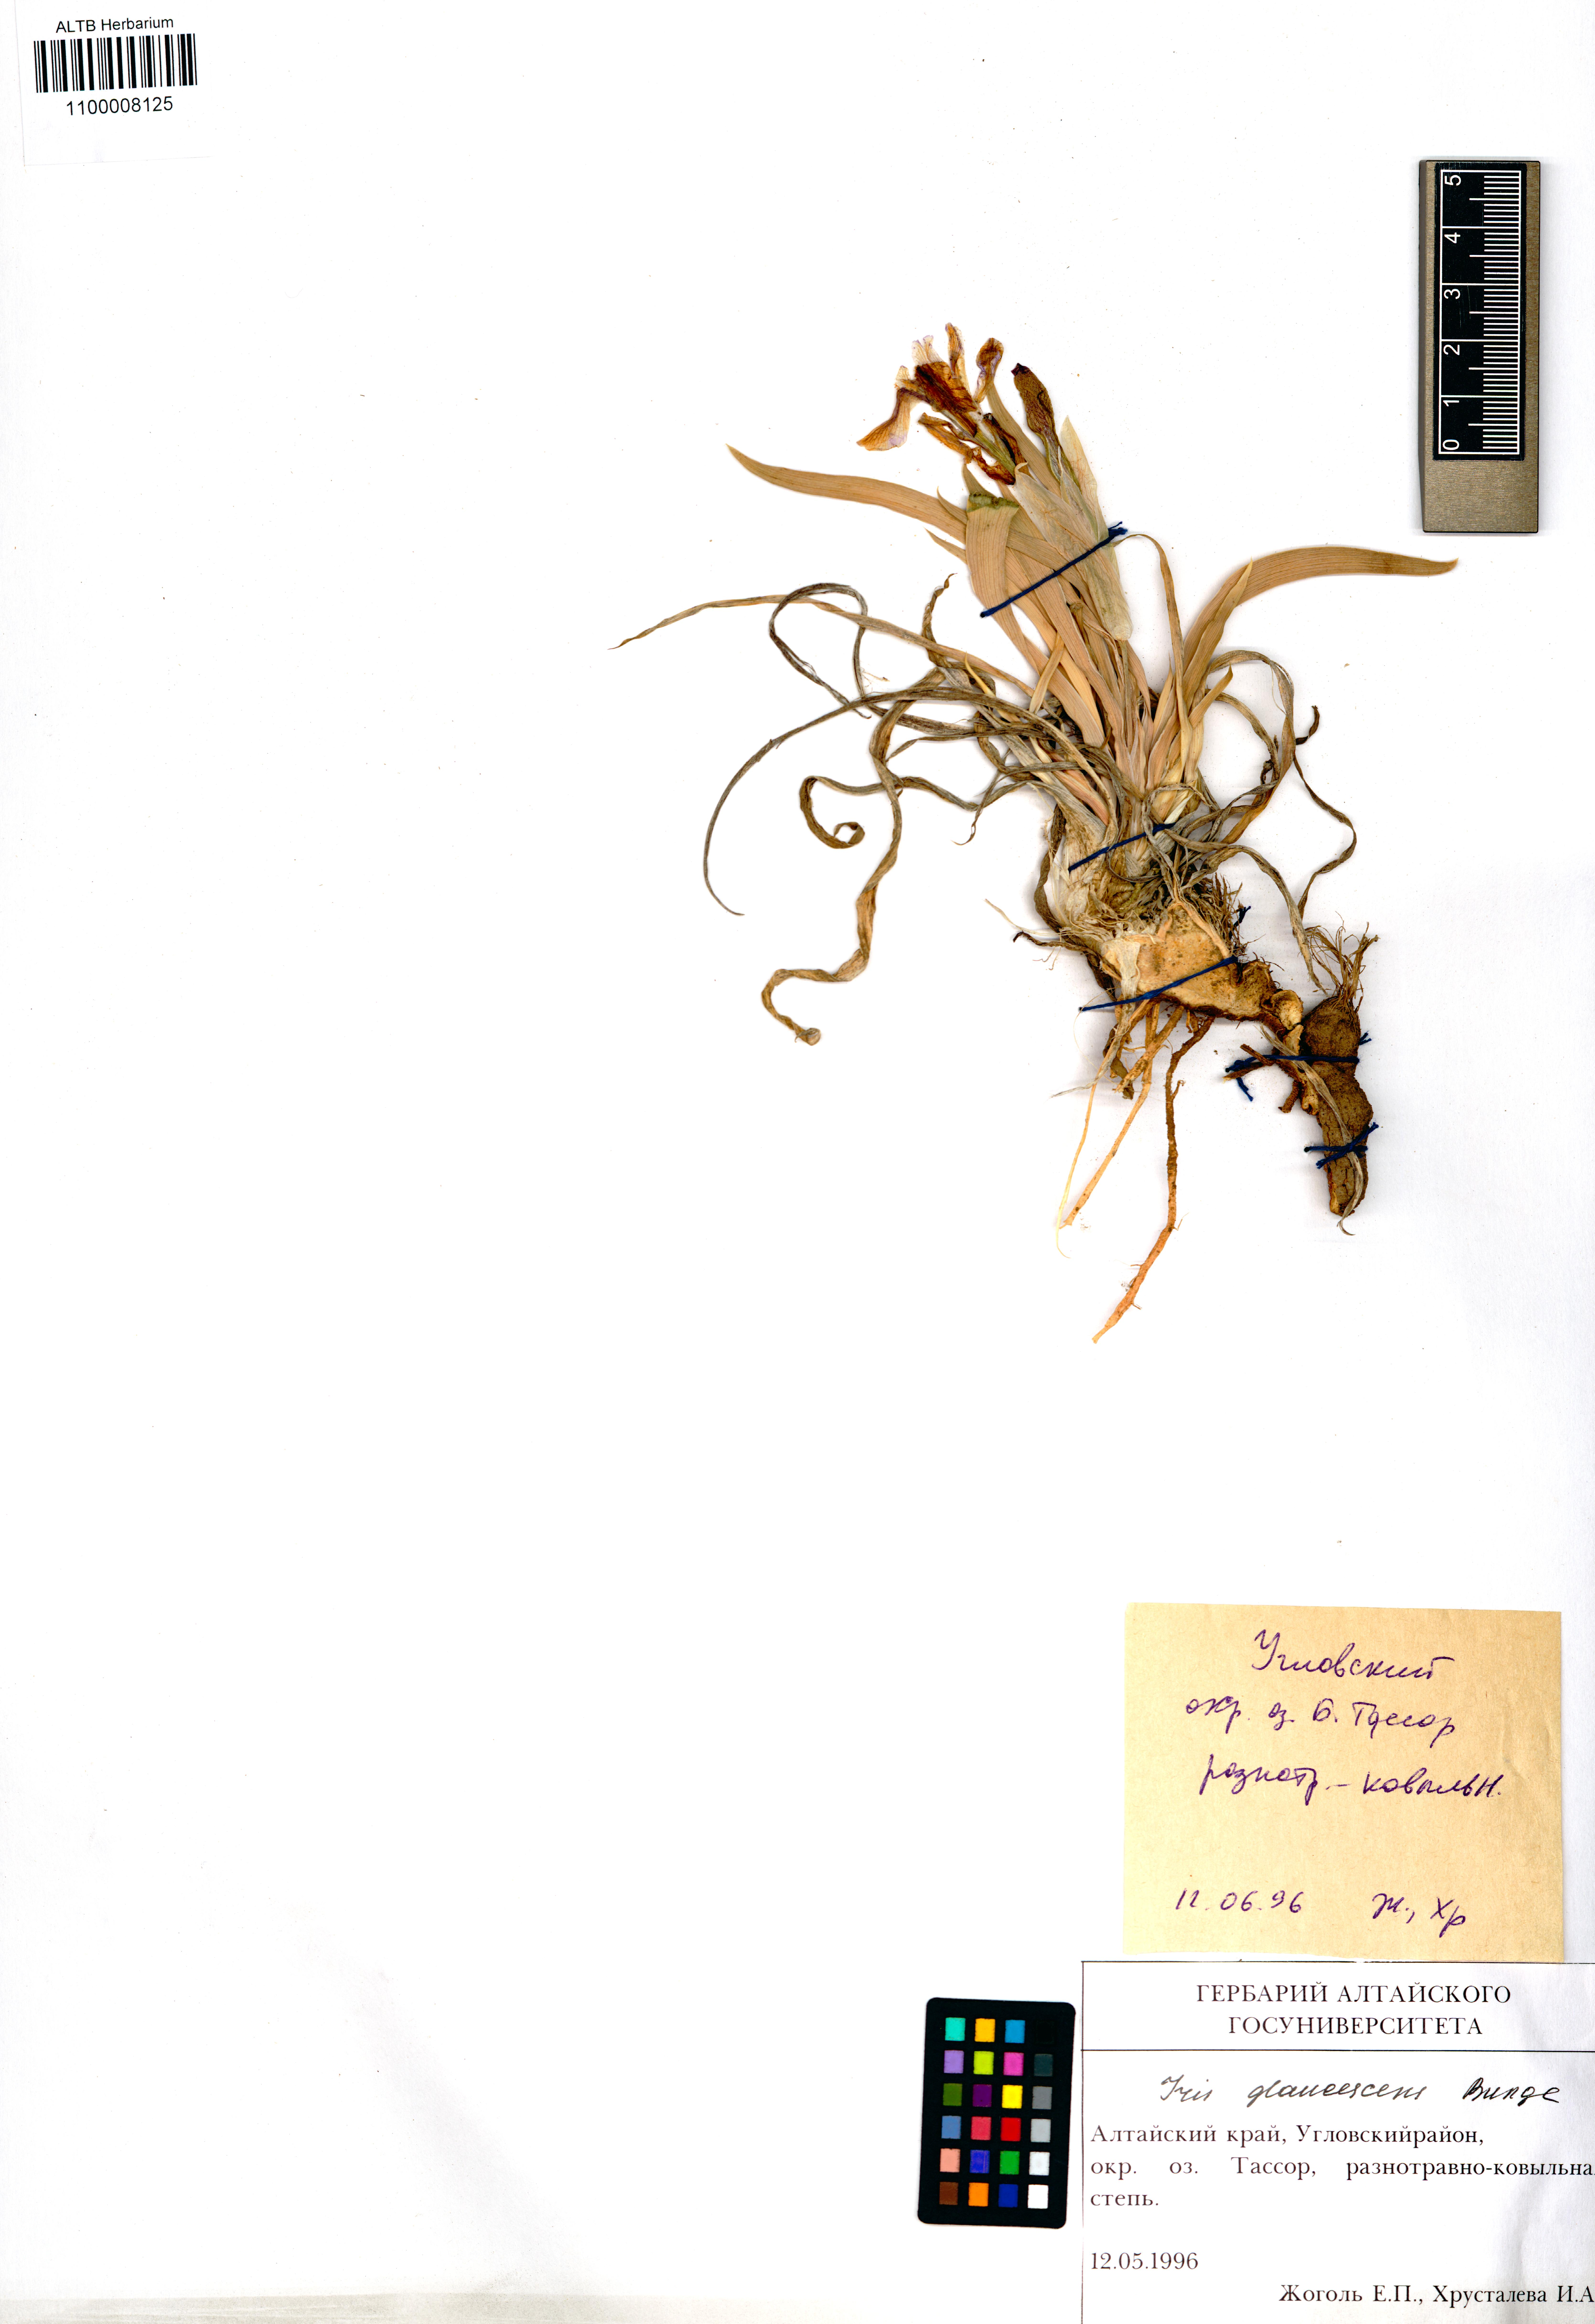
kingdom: Plantae
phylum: Tracheophyta
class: Liliopsida
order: Asparagales
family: Iridaceae
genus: Iris
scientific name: Iris glaucescens
